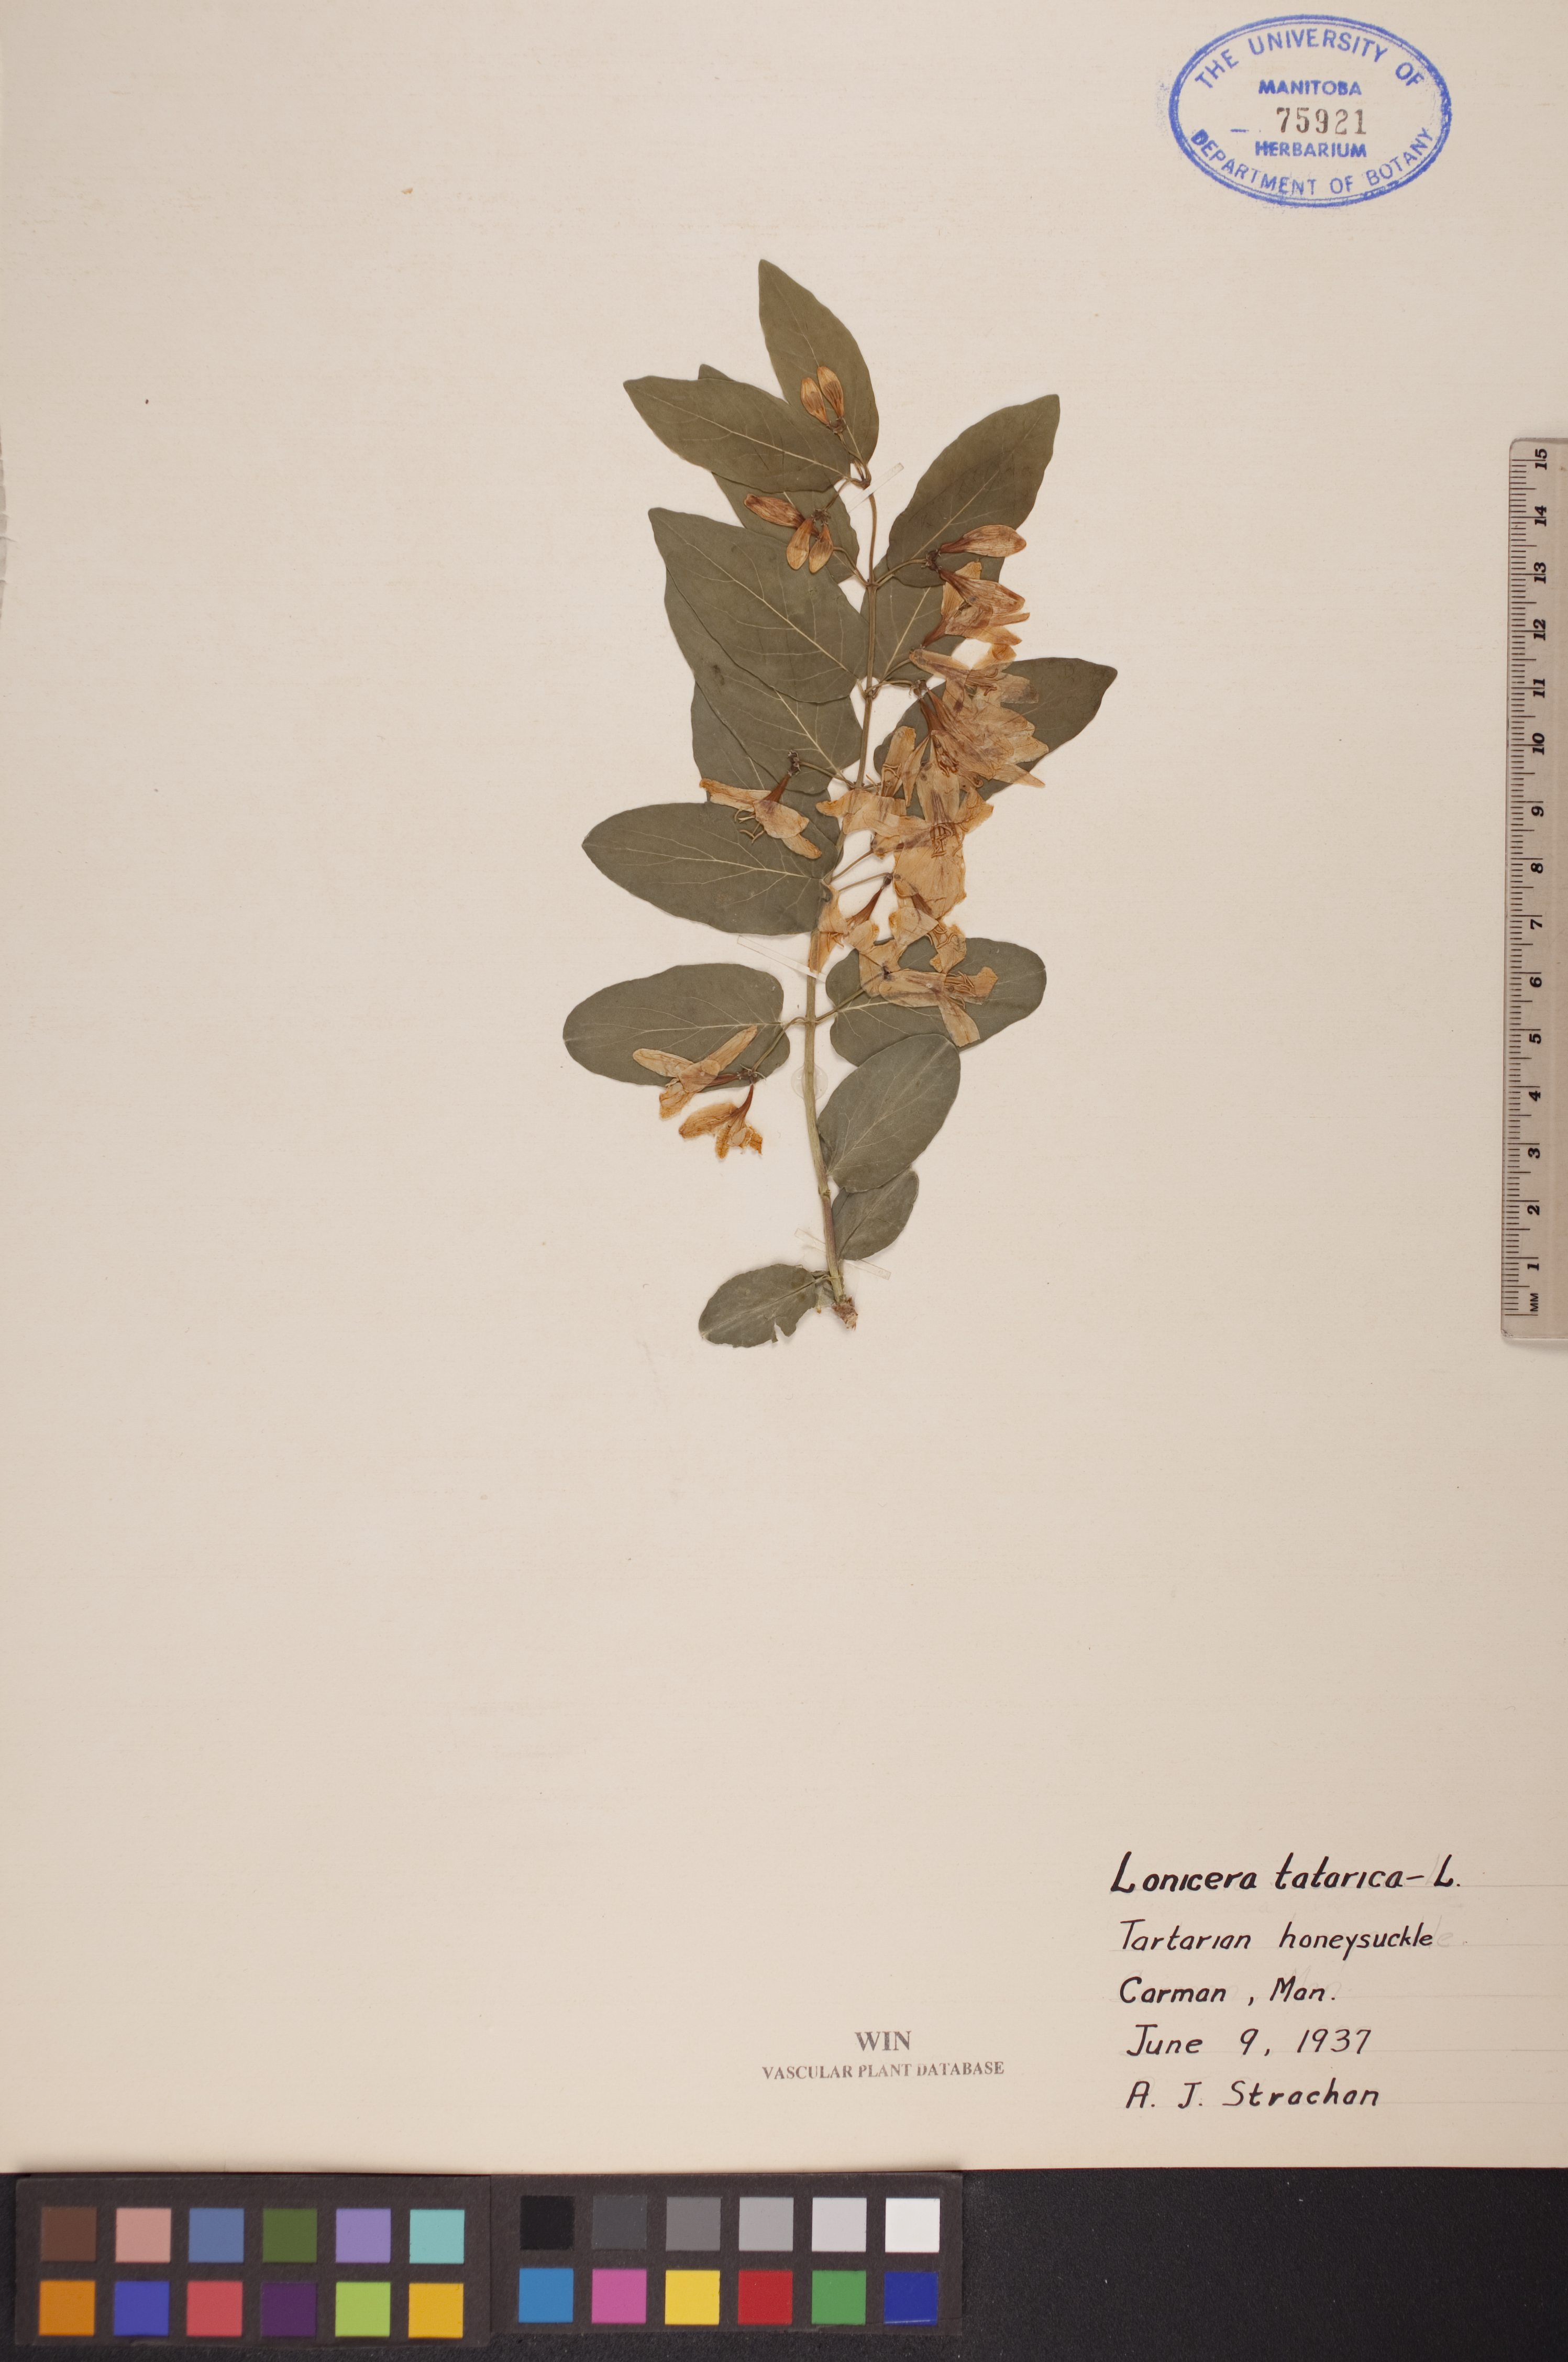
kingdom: Plantae
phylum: Tracheophyta
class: Magnoliopsida
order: Dipsacales
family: Caprifoliaceae
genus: Lonicera
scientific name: Lonicera tatarica
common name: Tatarian honeysuckle
